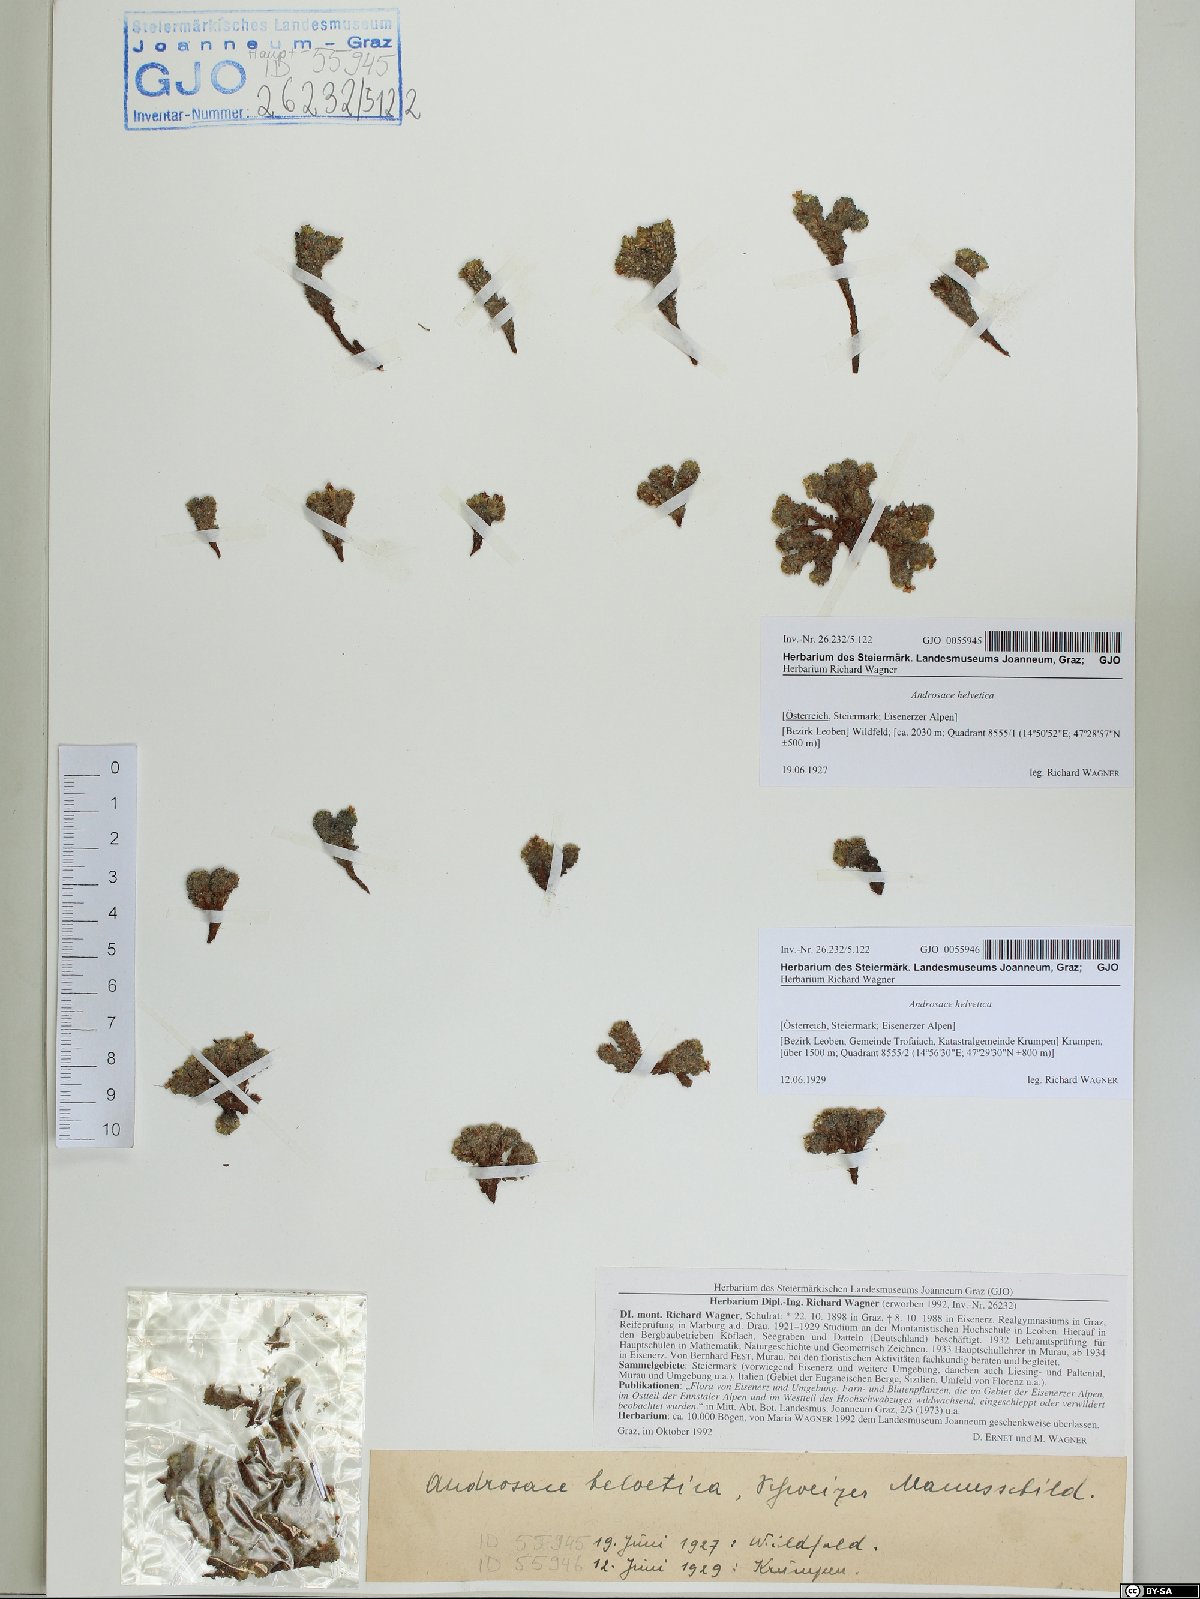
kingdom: Plantae
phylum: Tracheophyta
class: Magnoliopsida
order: Ericales
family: Primulaceae
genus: Androsace
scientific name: Androsace helvetica
